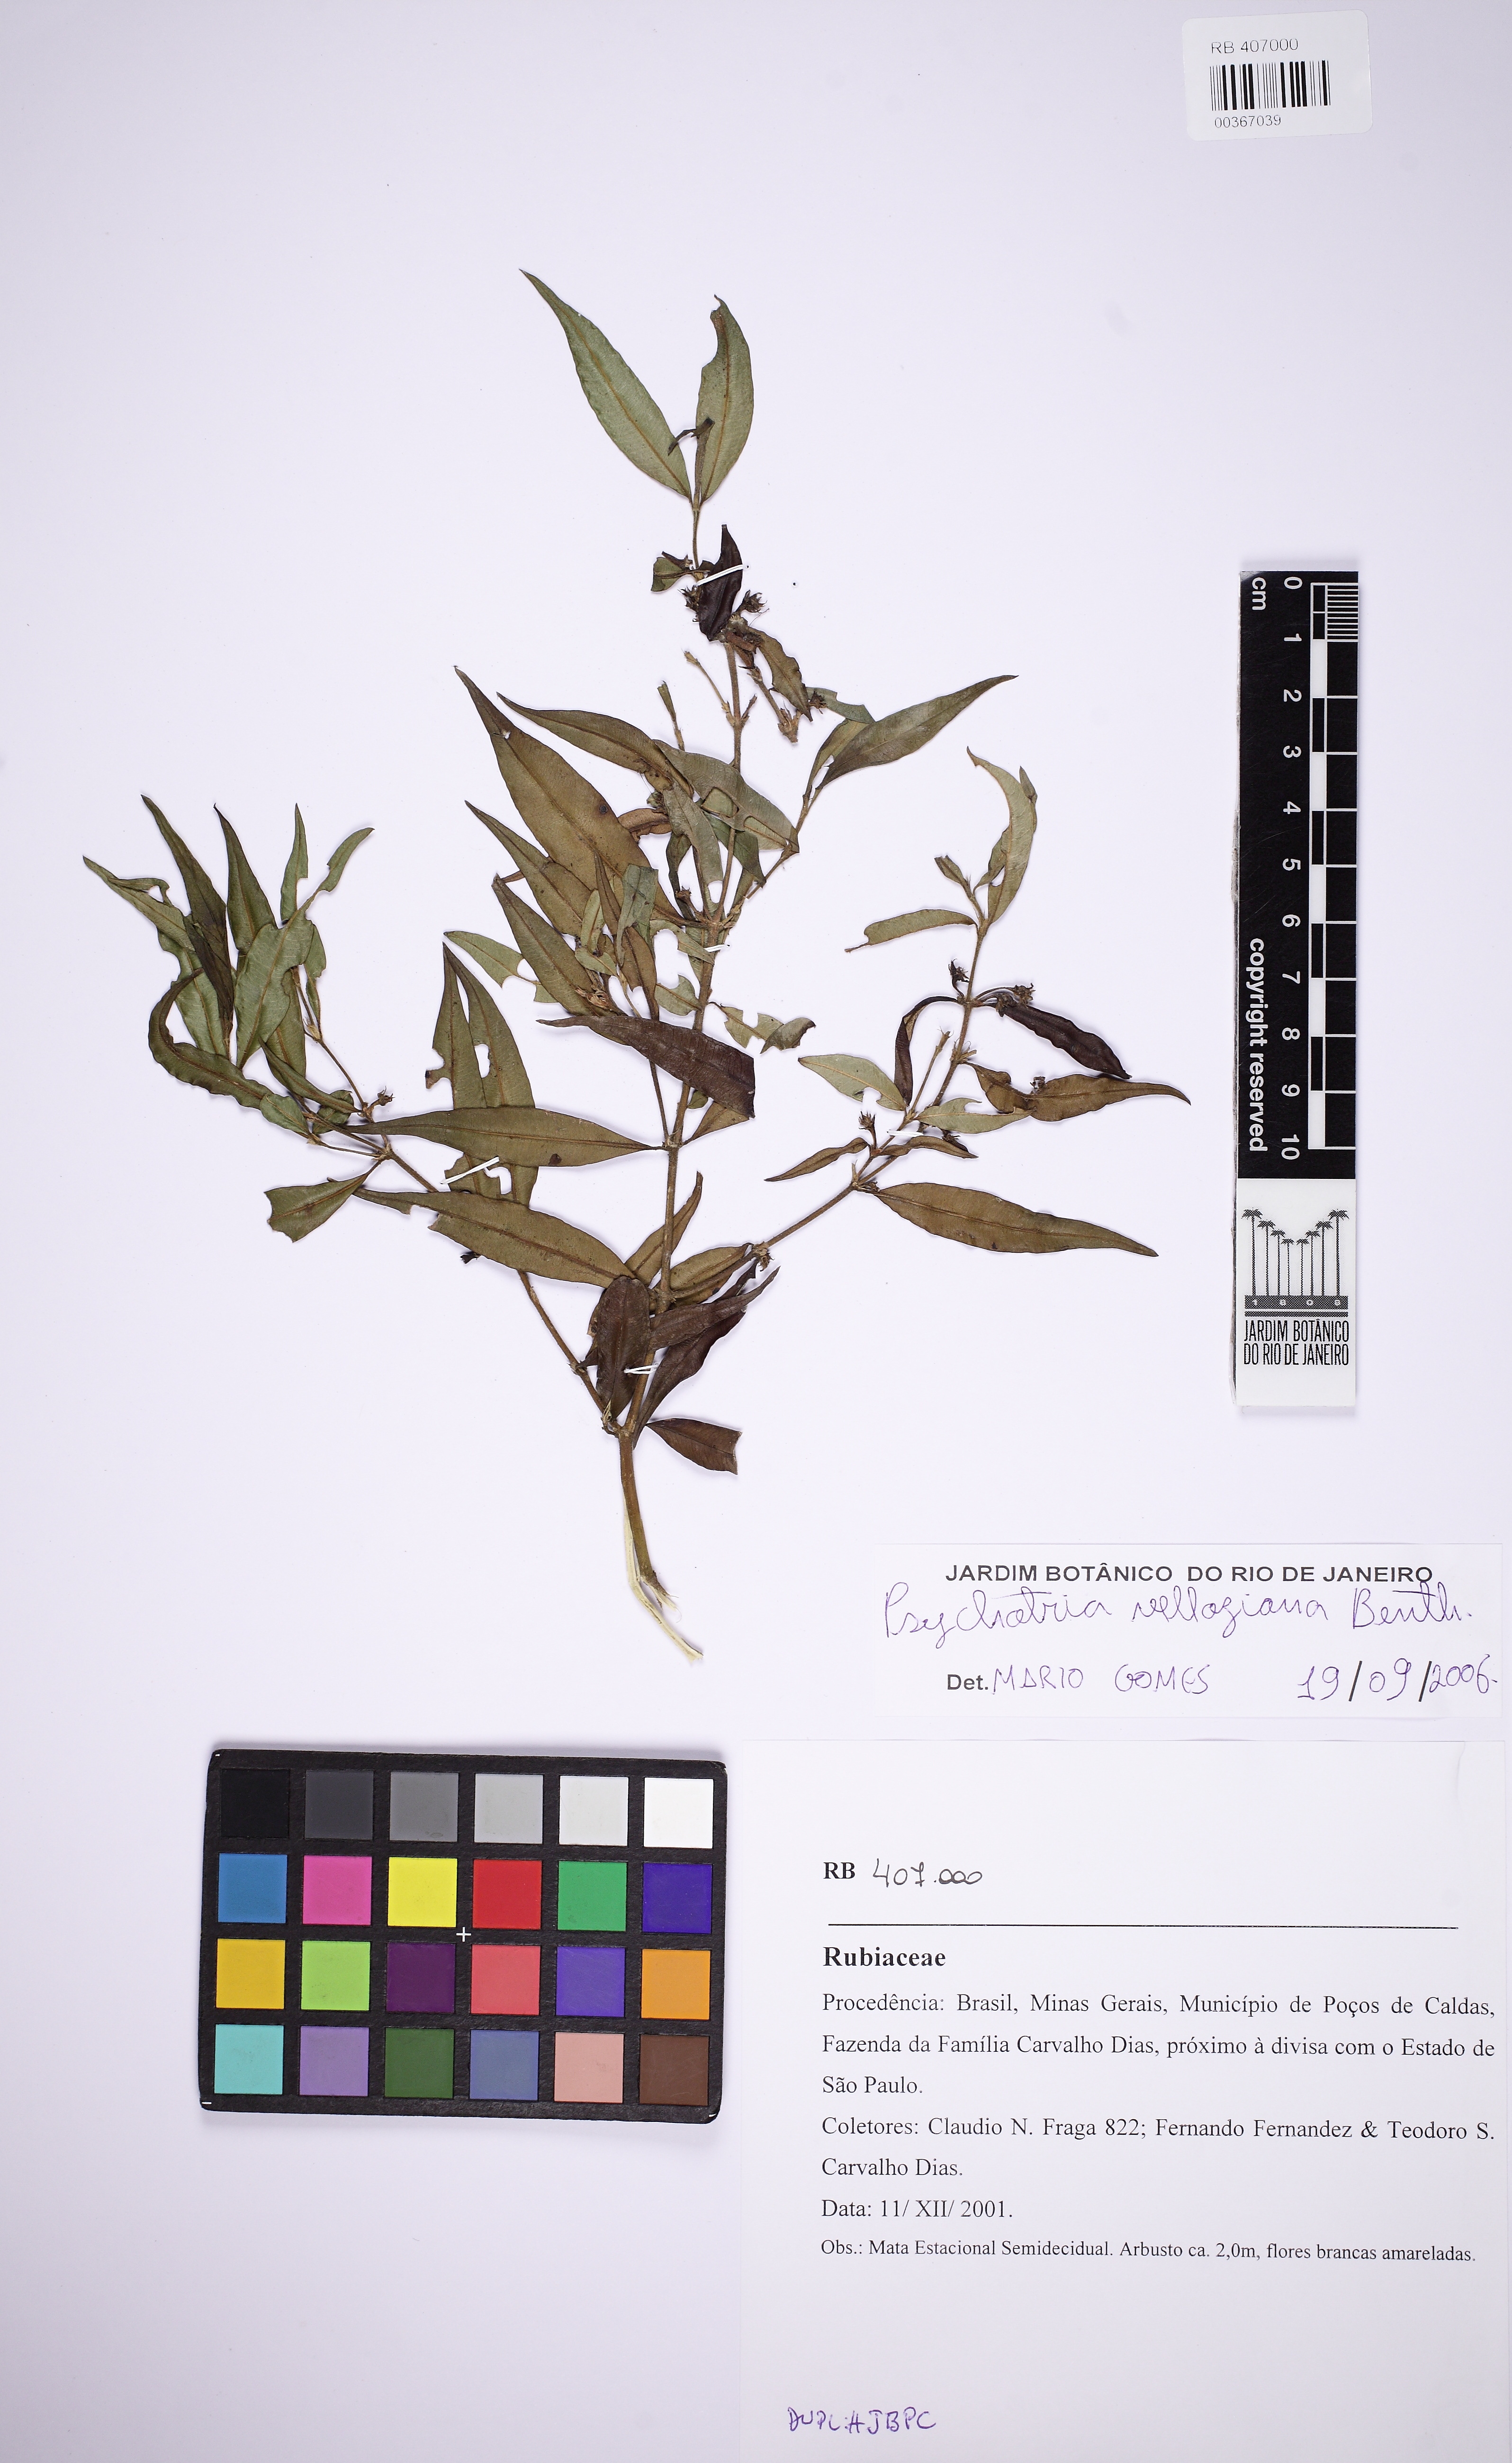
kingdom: Plantae
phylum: Tracheophyta
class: Magnoliopsida
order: Gentianales
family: Rubiaceae
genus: Palicourea
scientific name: Palicourea sessilis
